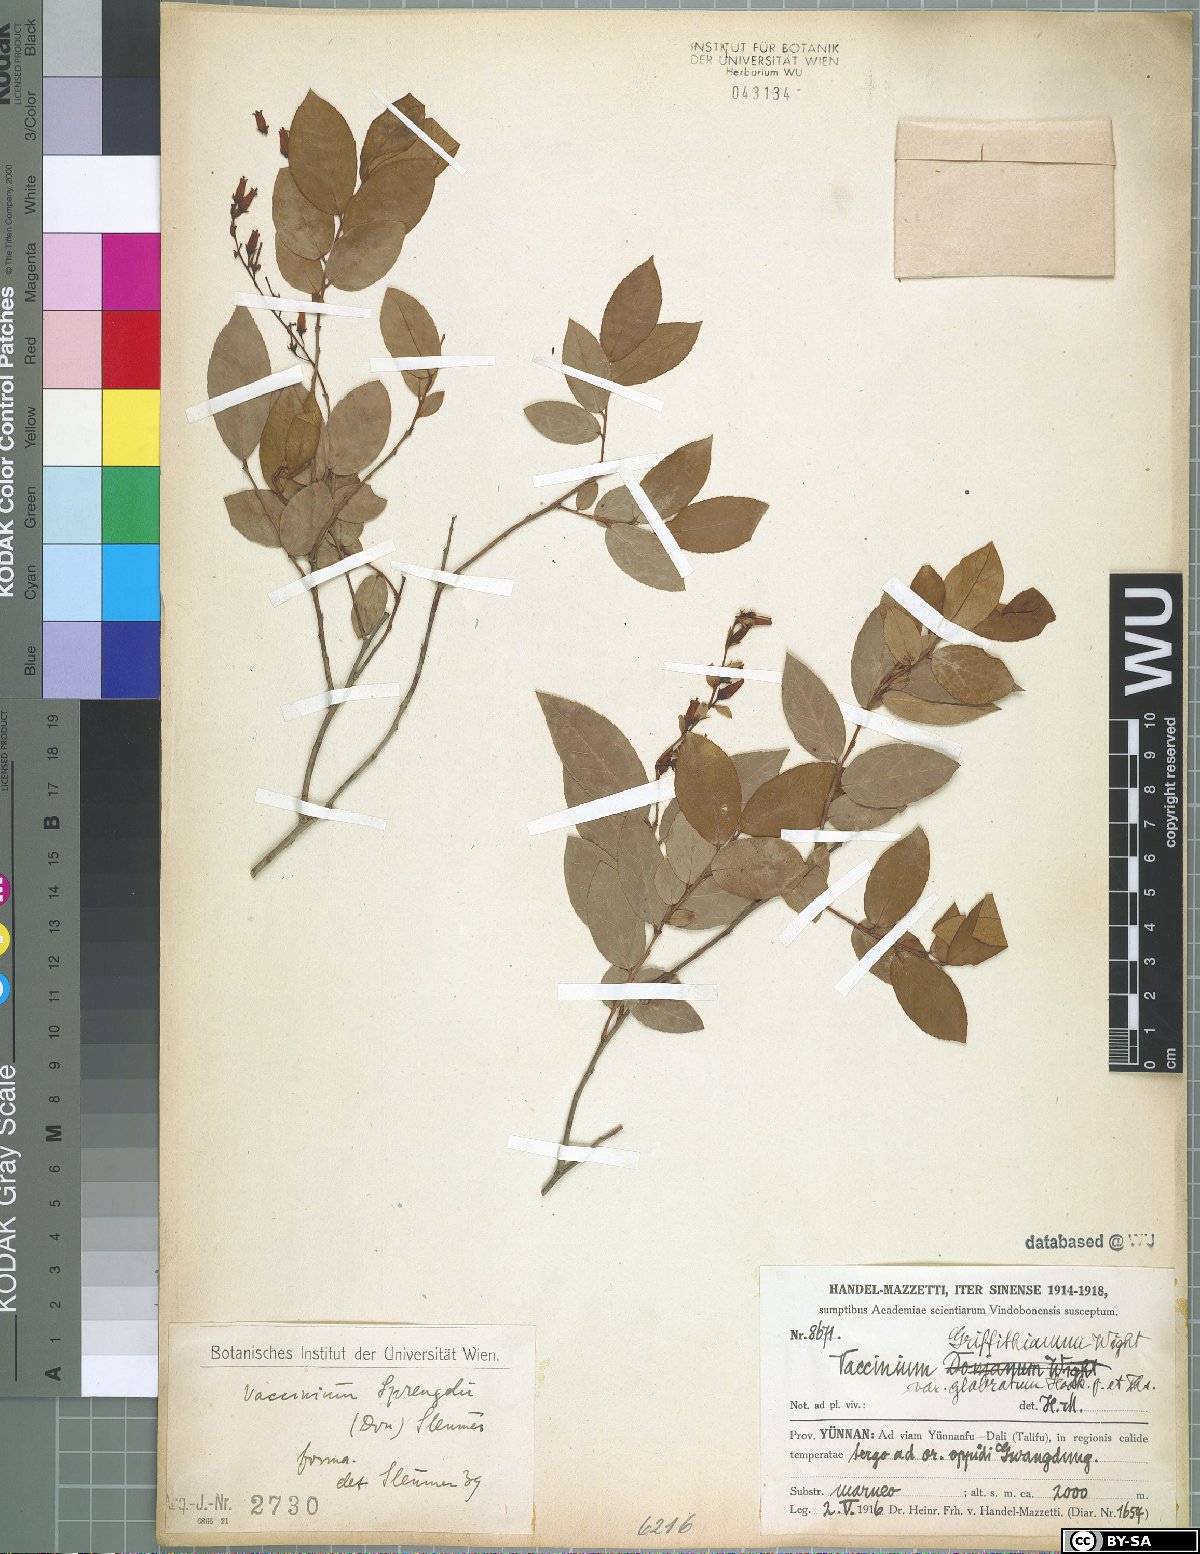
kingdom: Plantae
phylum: Tracheophyta
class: Magnoliopsida
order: Ericales
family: Ericaceae
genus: Vaccinium
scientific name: Vaccinium sprengelii
